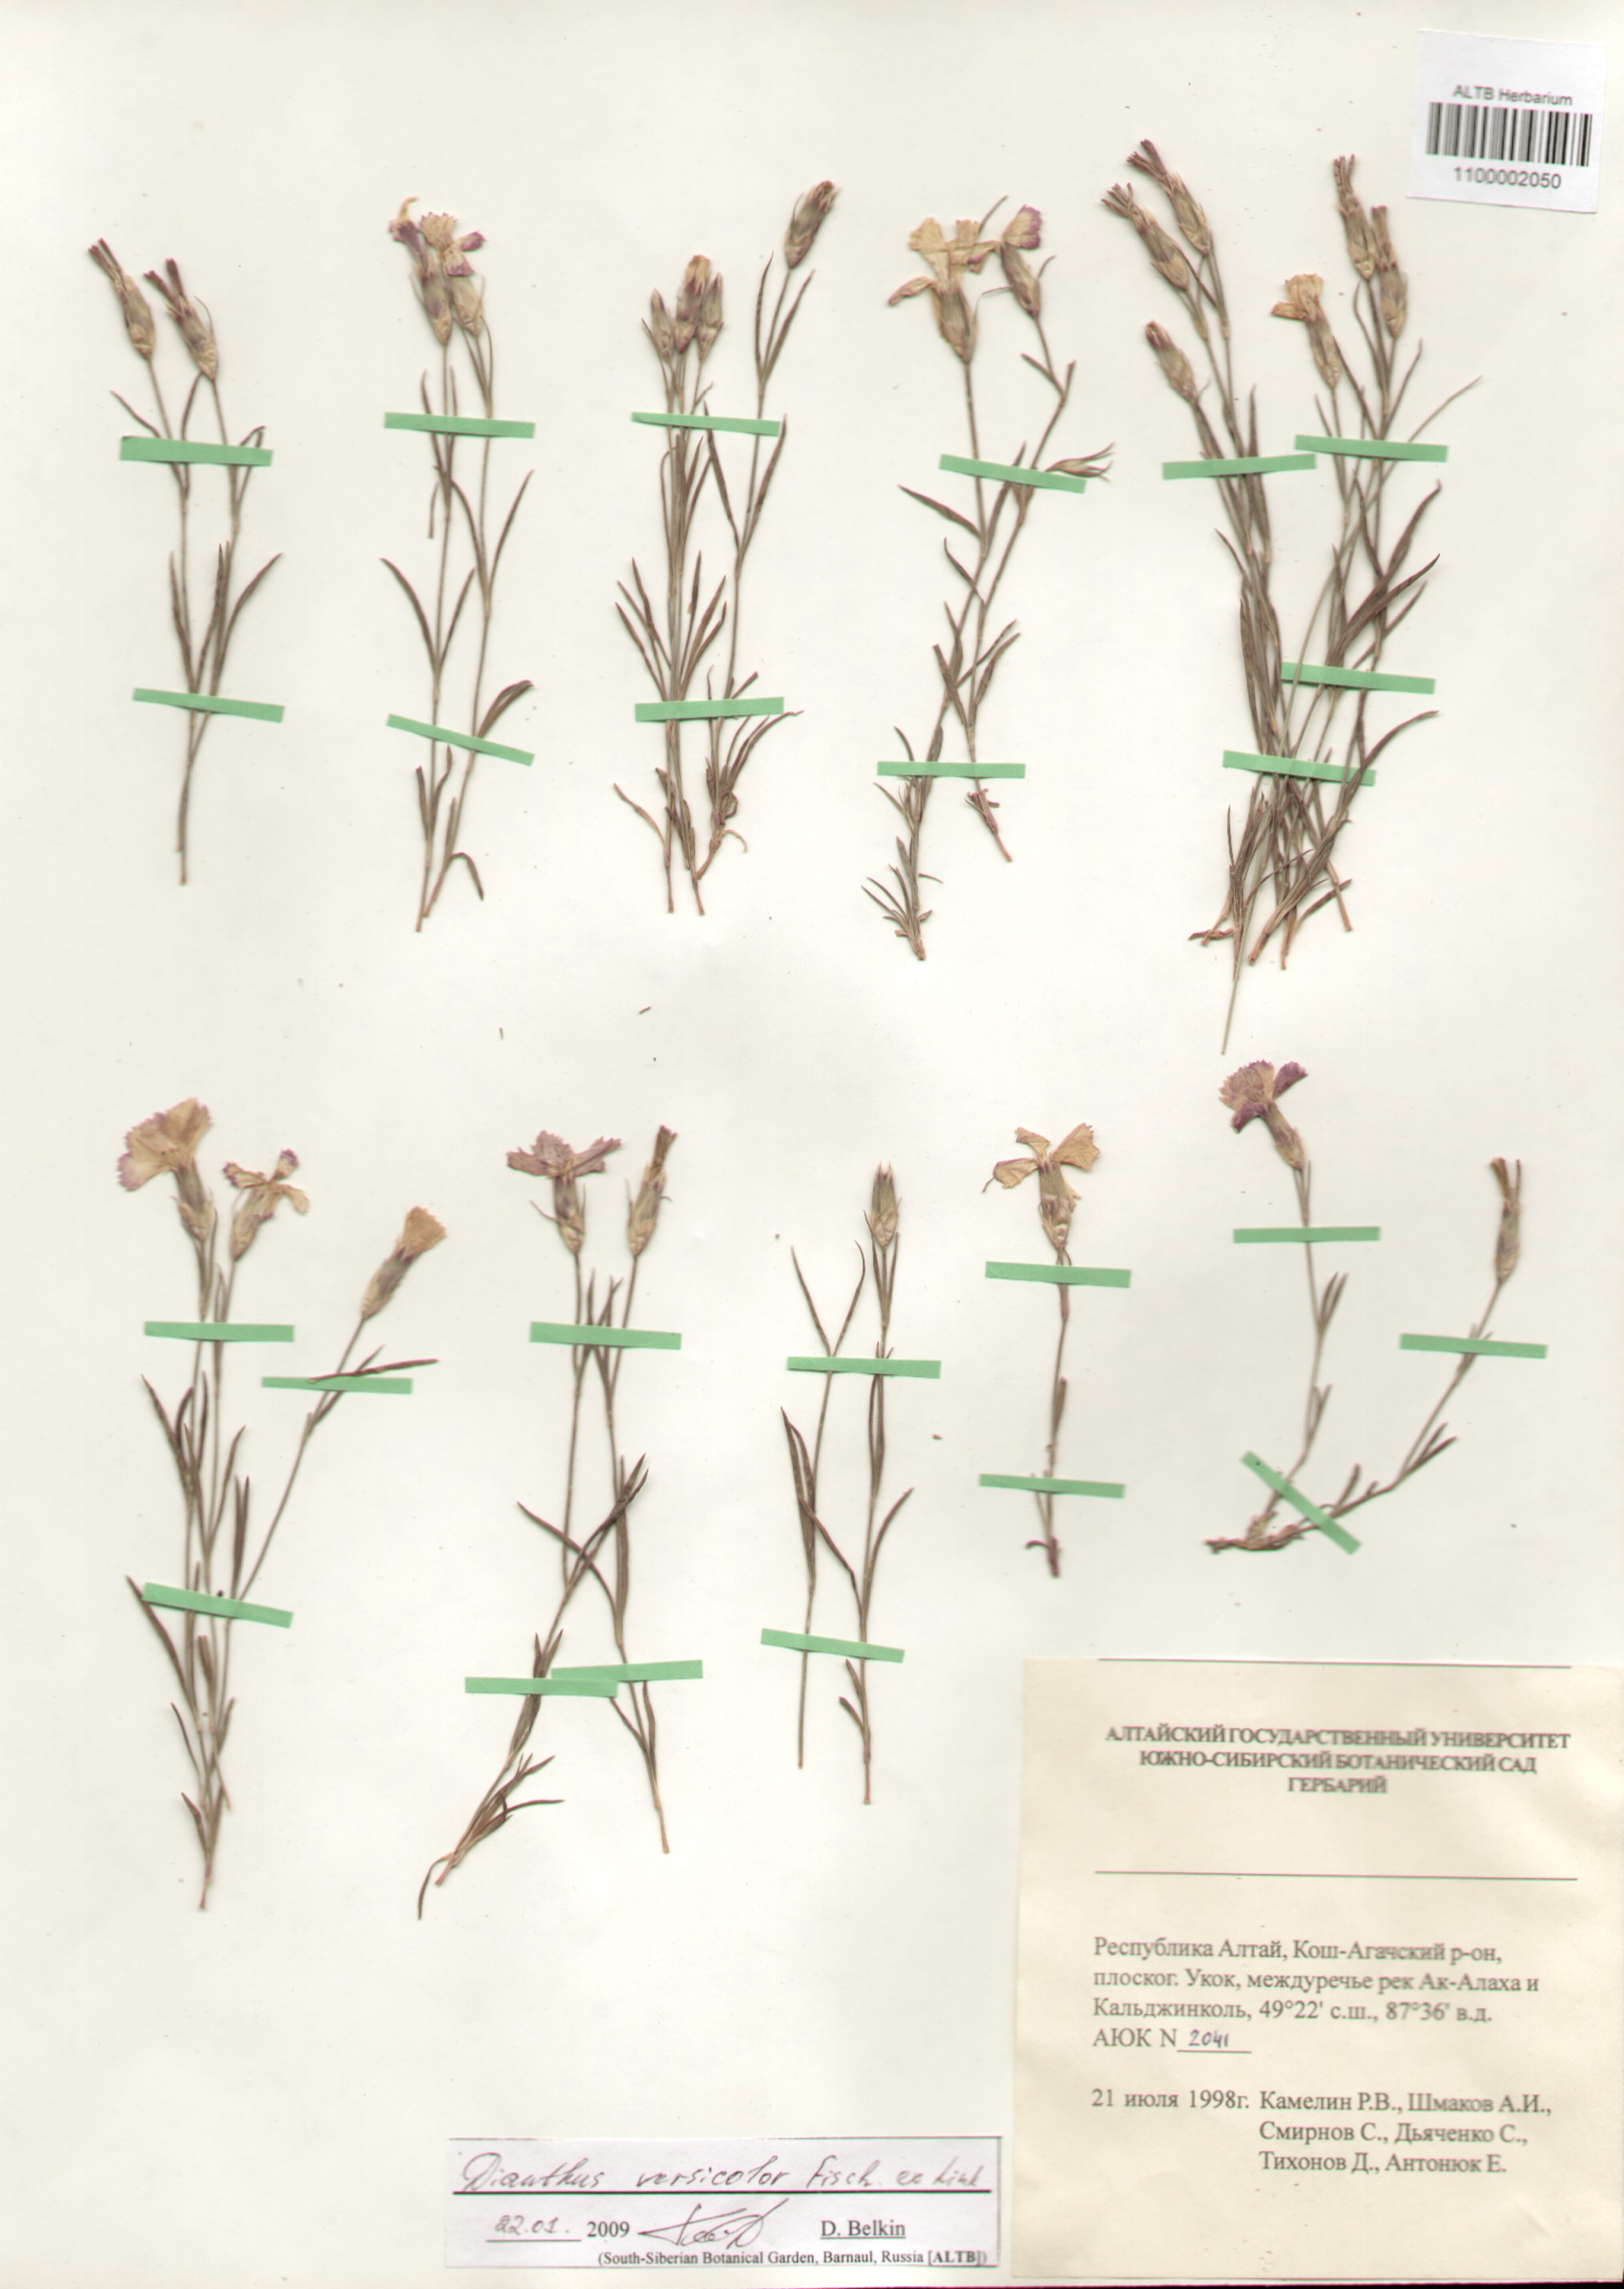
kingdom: Plantae
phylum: Tracheophyta
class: Magnoliopsida
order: Caryophyllales
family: Caryophyllaceae
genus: Dianthus
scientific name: Dianthus chinensis
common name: Rainbow pink
